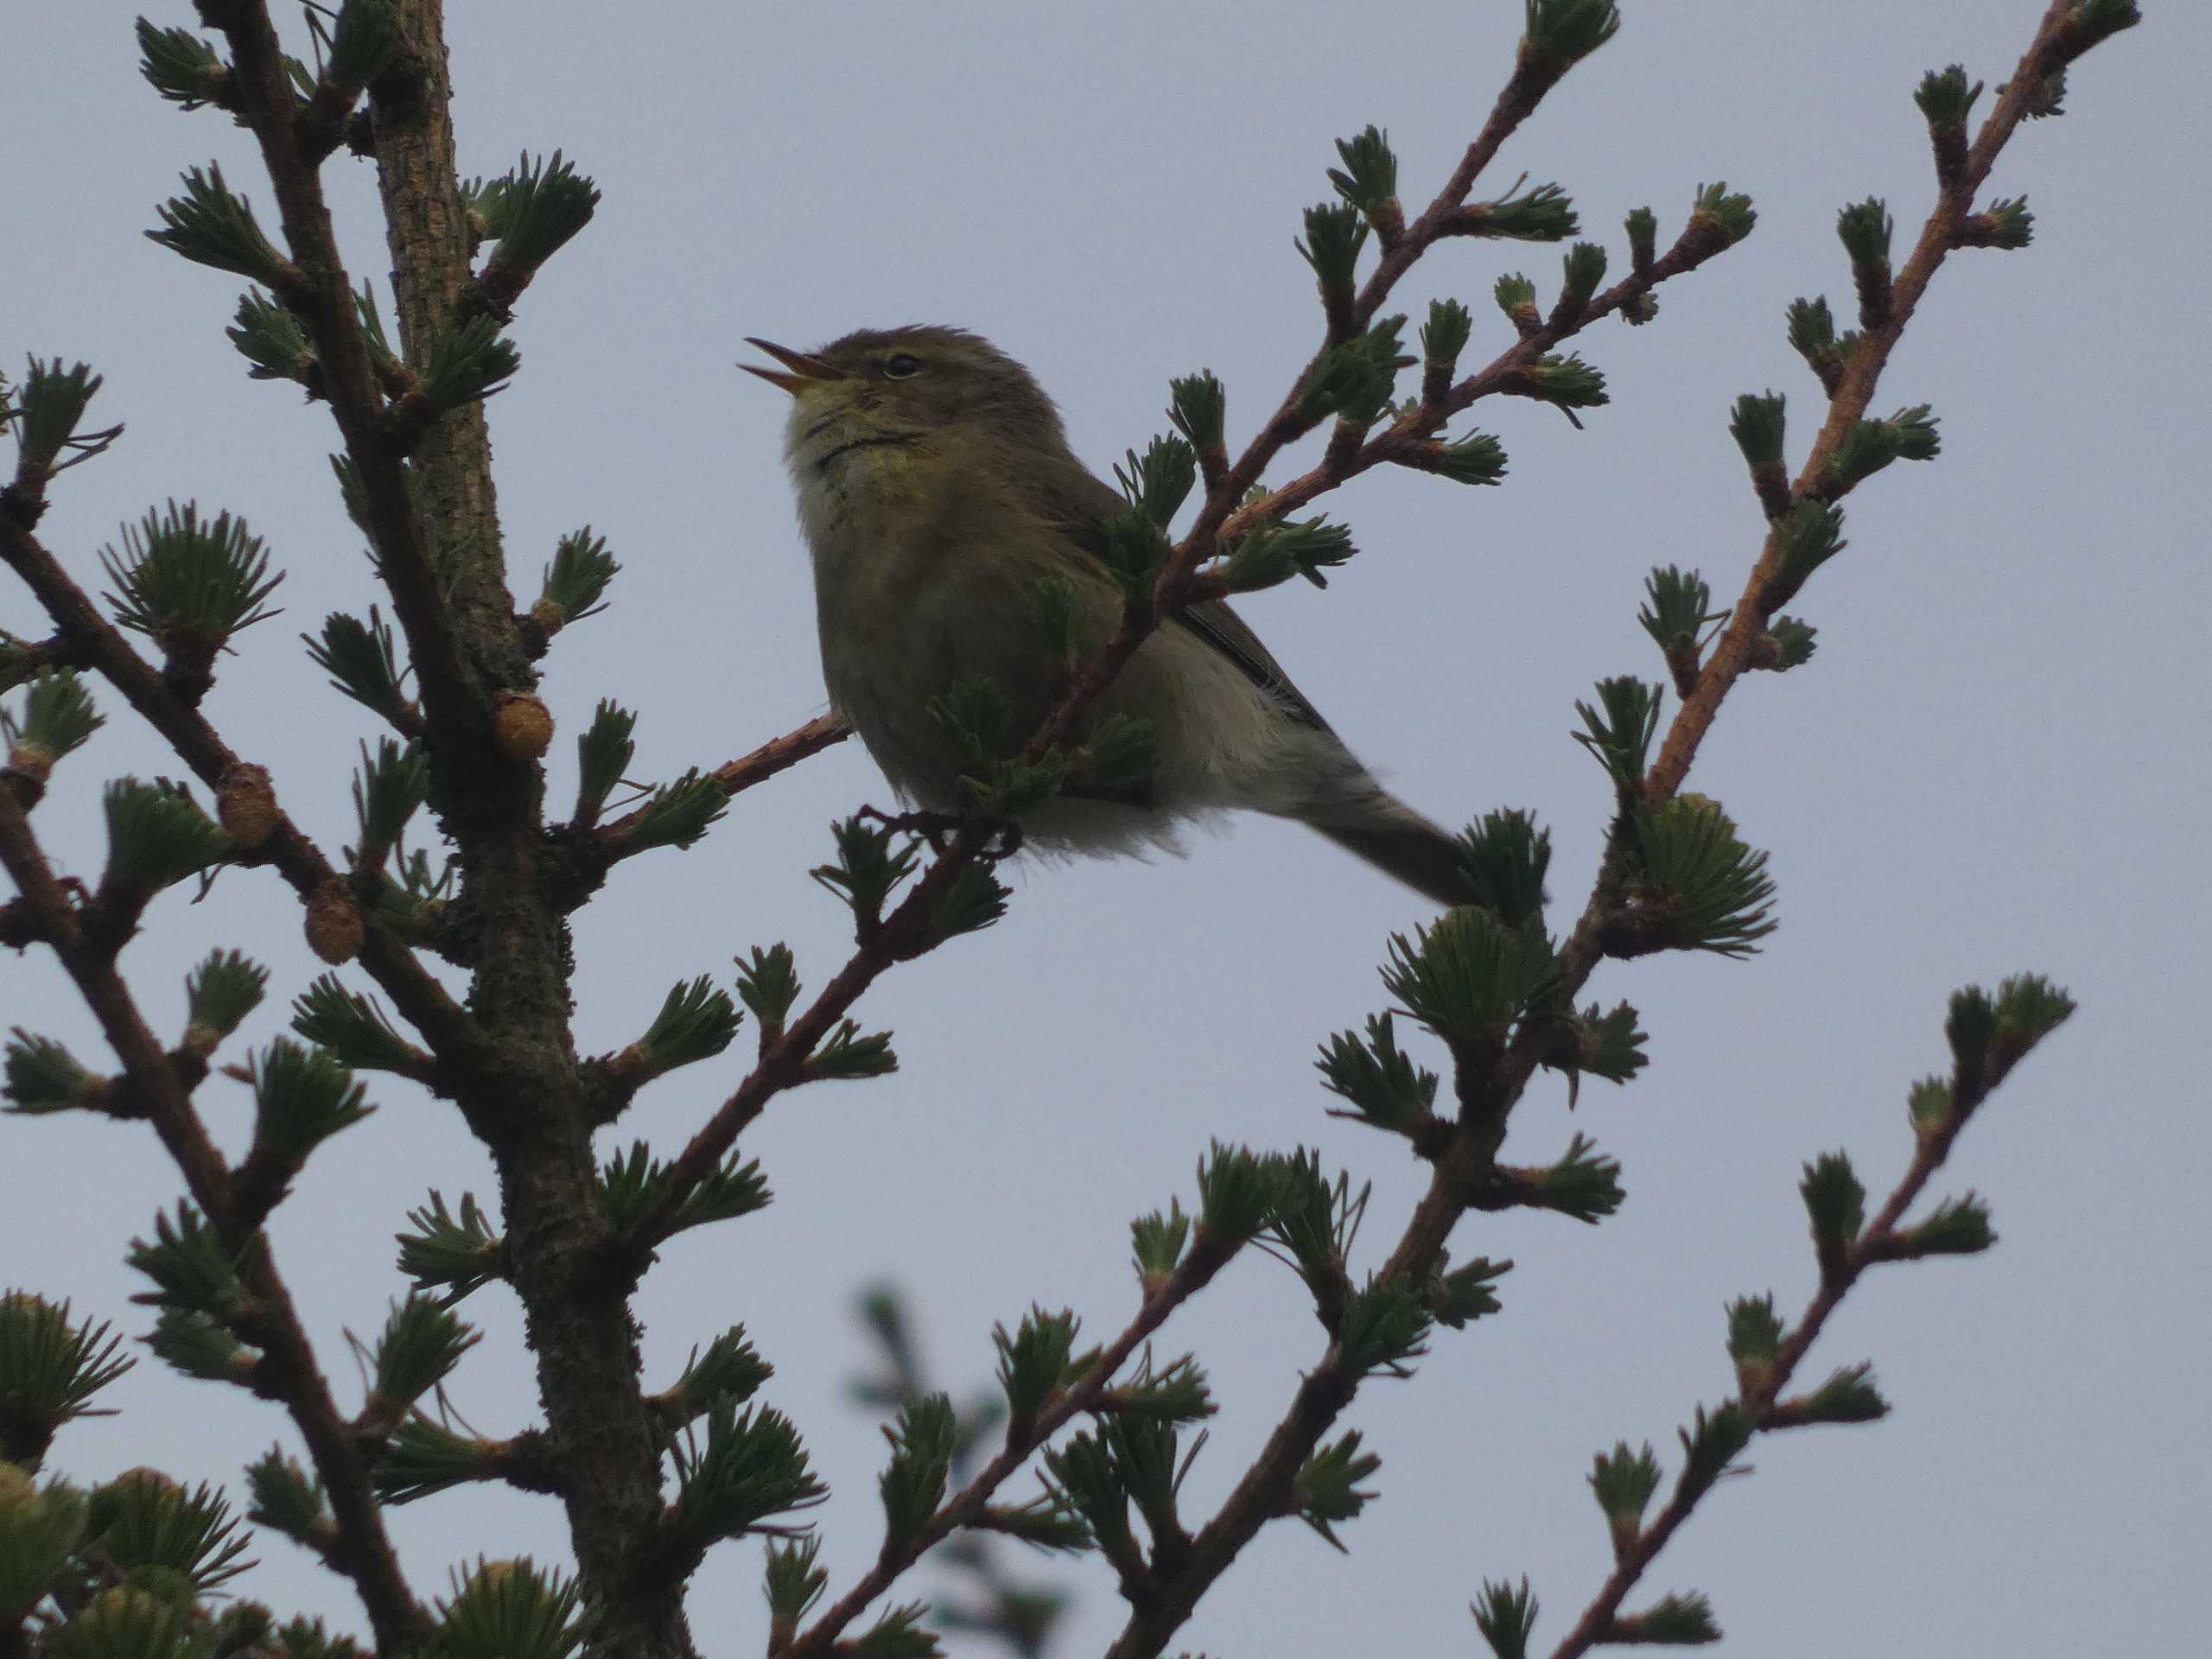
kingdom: Animalia
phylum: Chordata
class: Aves
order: Passeriformes
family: Phylloscopidae
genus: Phylloscopus
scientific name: Phylloscopus collybita
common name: Gransanger
